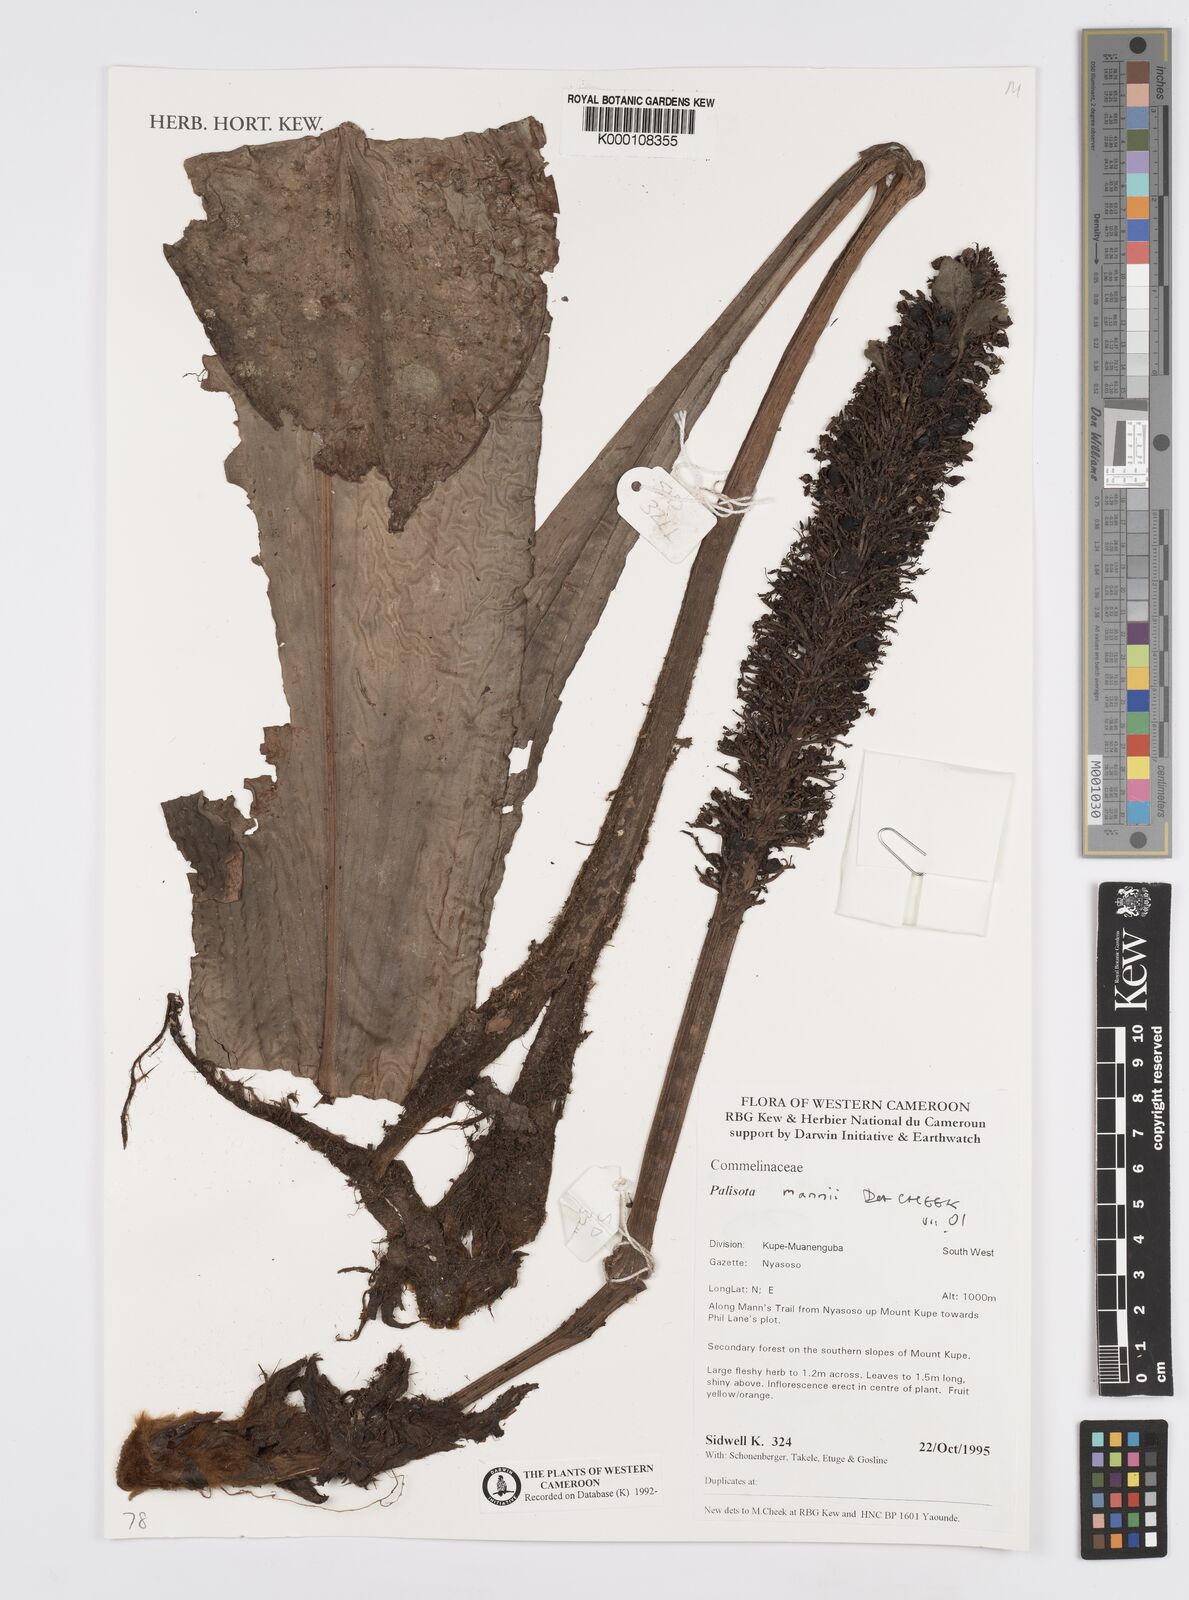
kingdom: Plantae
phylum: Tracheophyta
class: Liliopsida
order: Commelinales
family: Commelinaceae
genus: Palisota
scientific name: Palisota mannii
